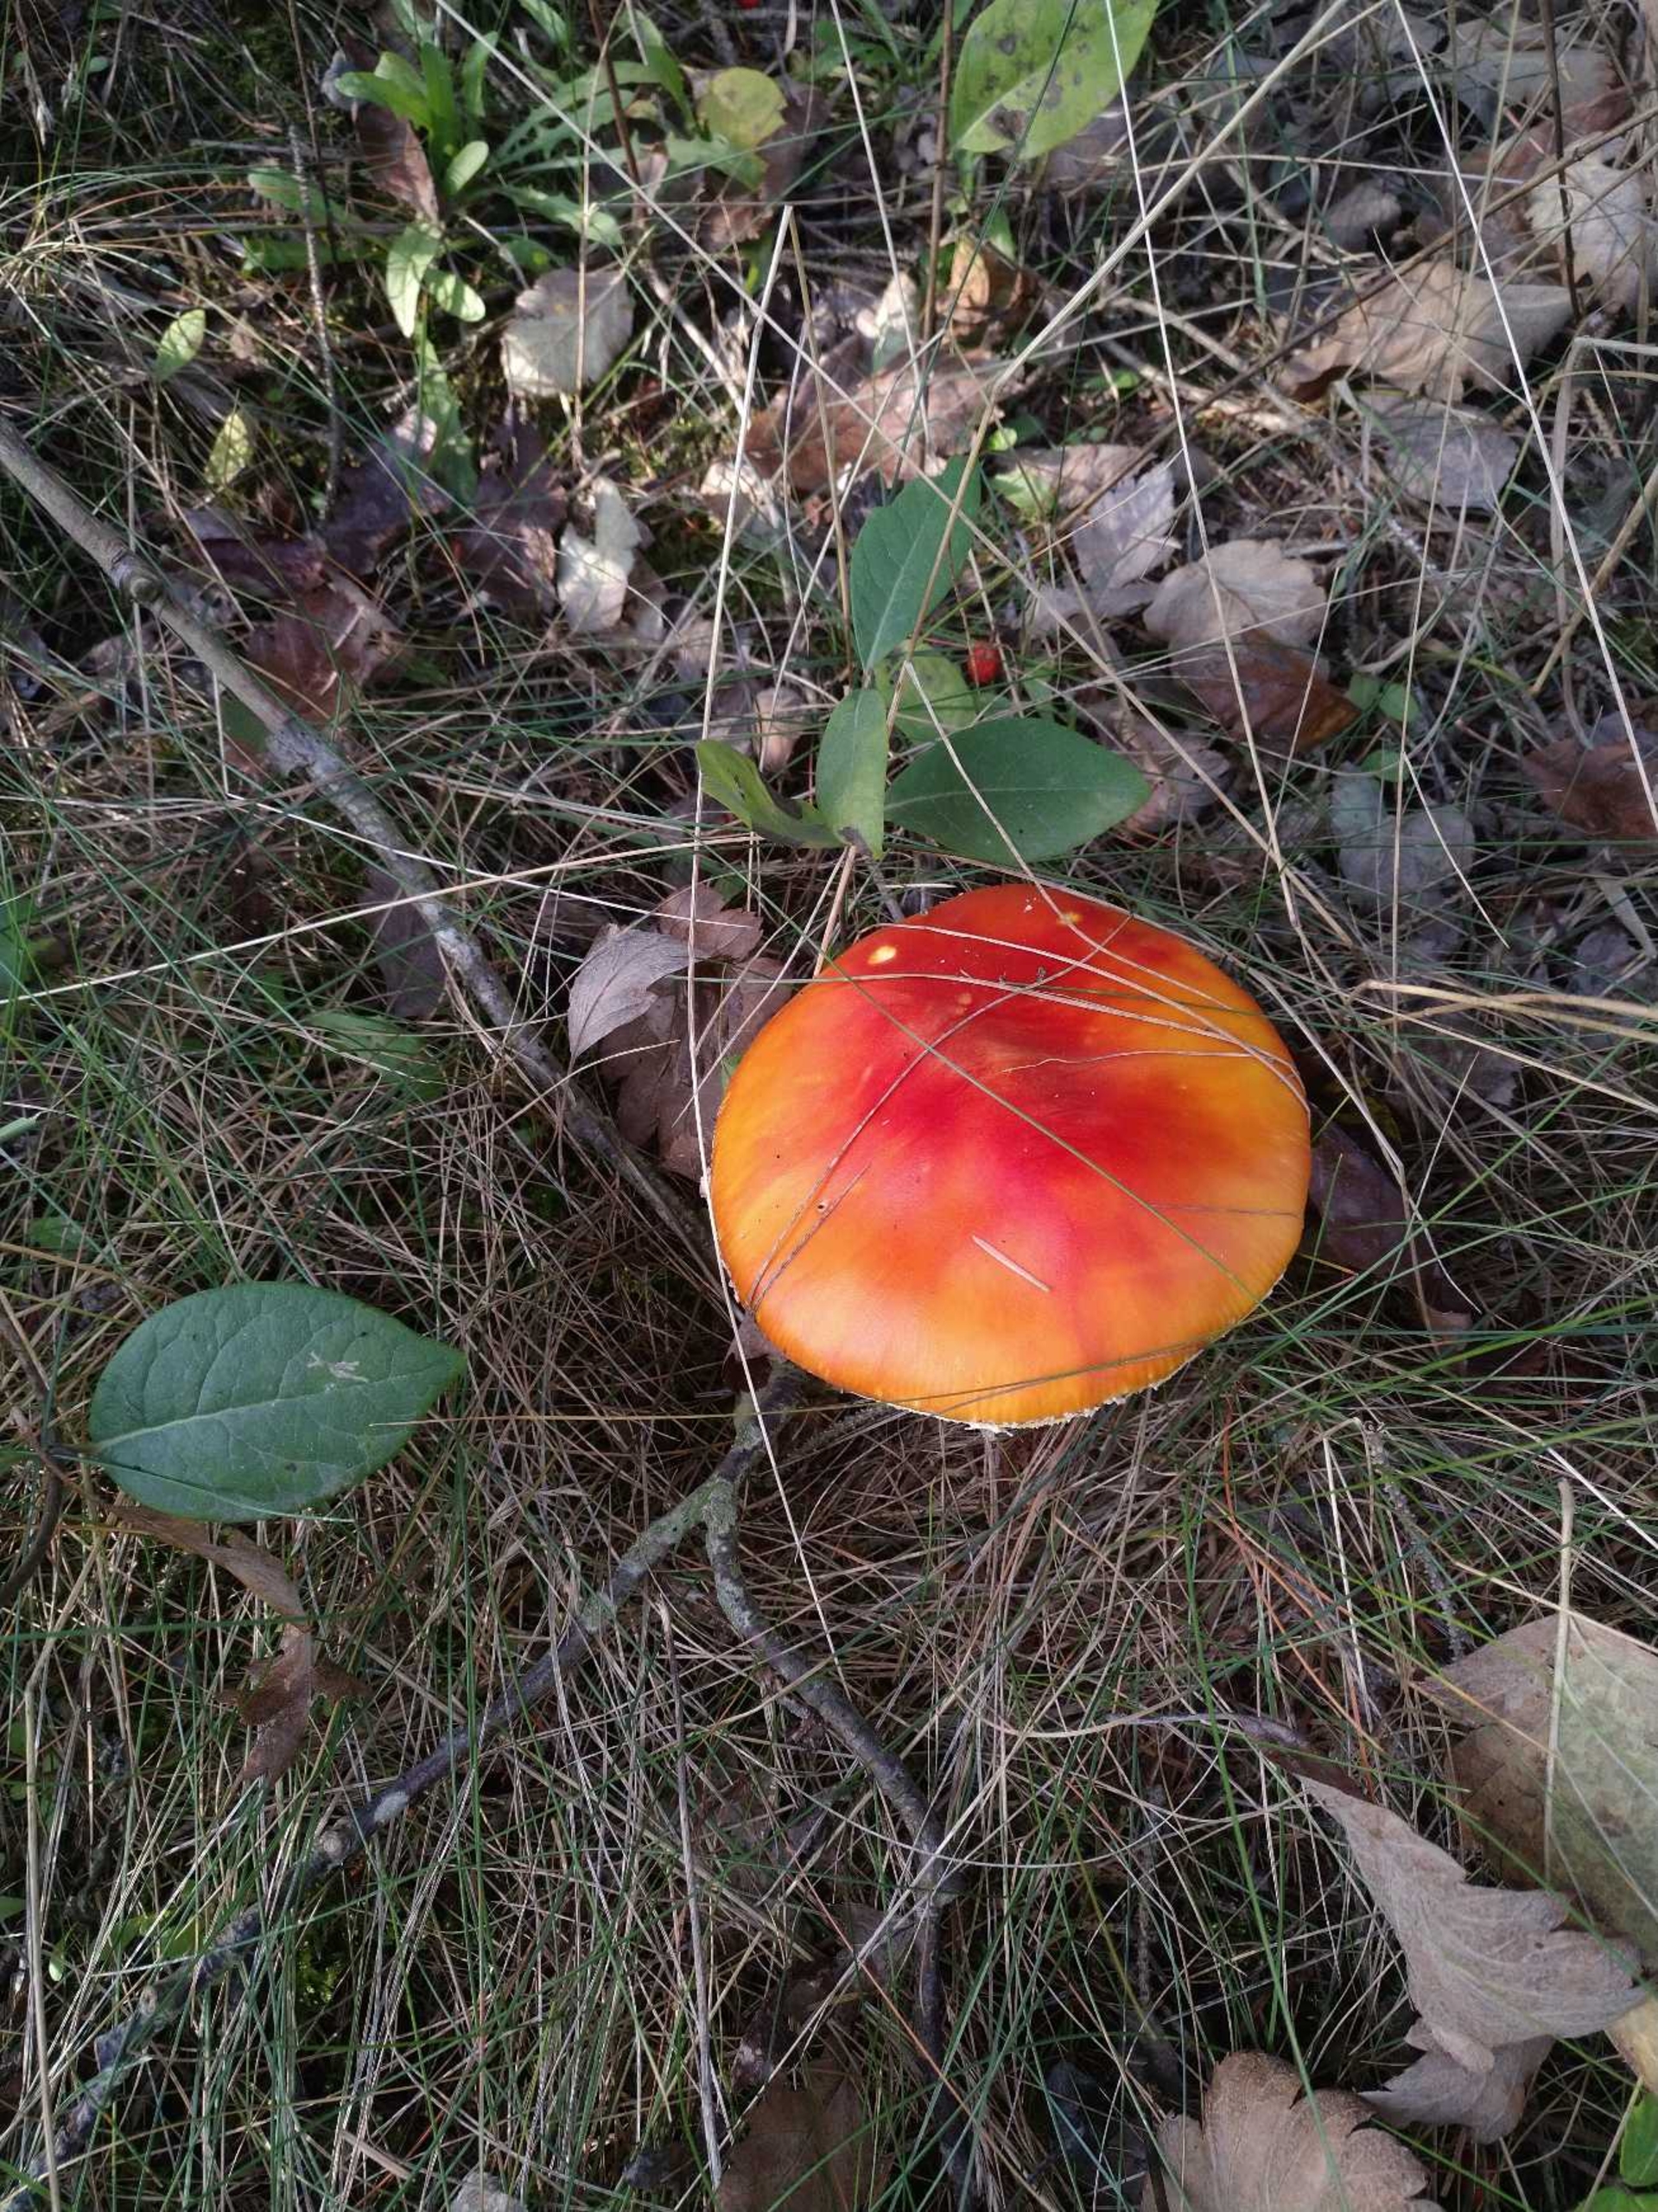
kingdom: Fungi
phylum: Basidiomycota
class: Agaricomycetes
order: Agaricales
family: Amanitaceae
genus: Amanita
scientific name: Amanita muscaria
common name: Rød fluesvamp
